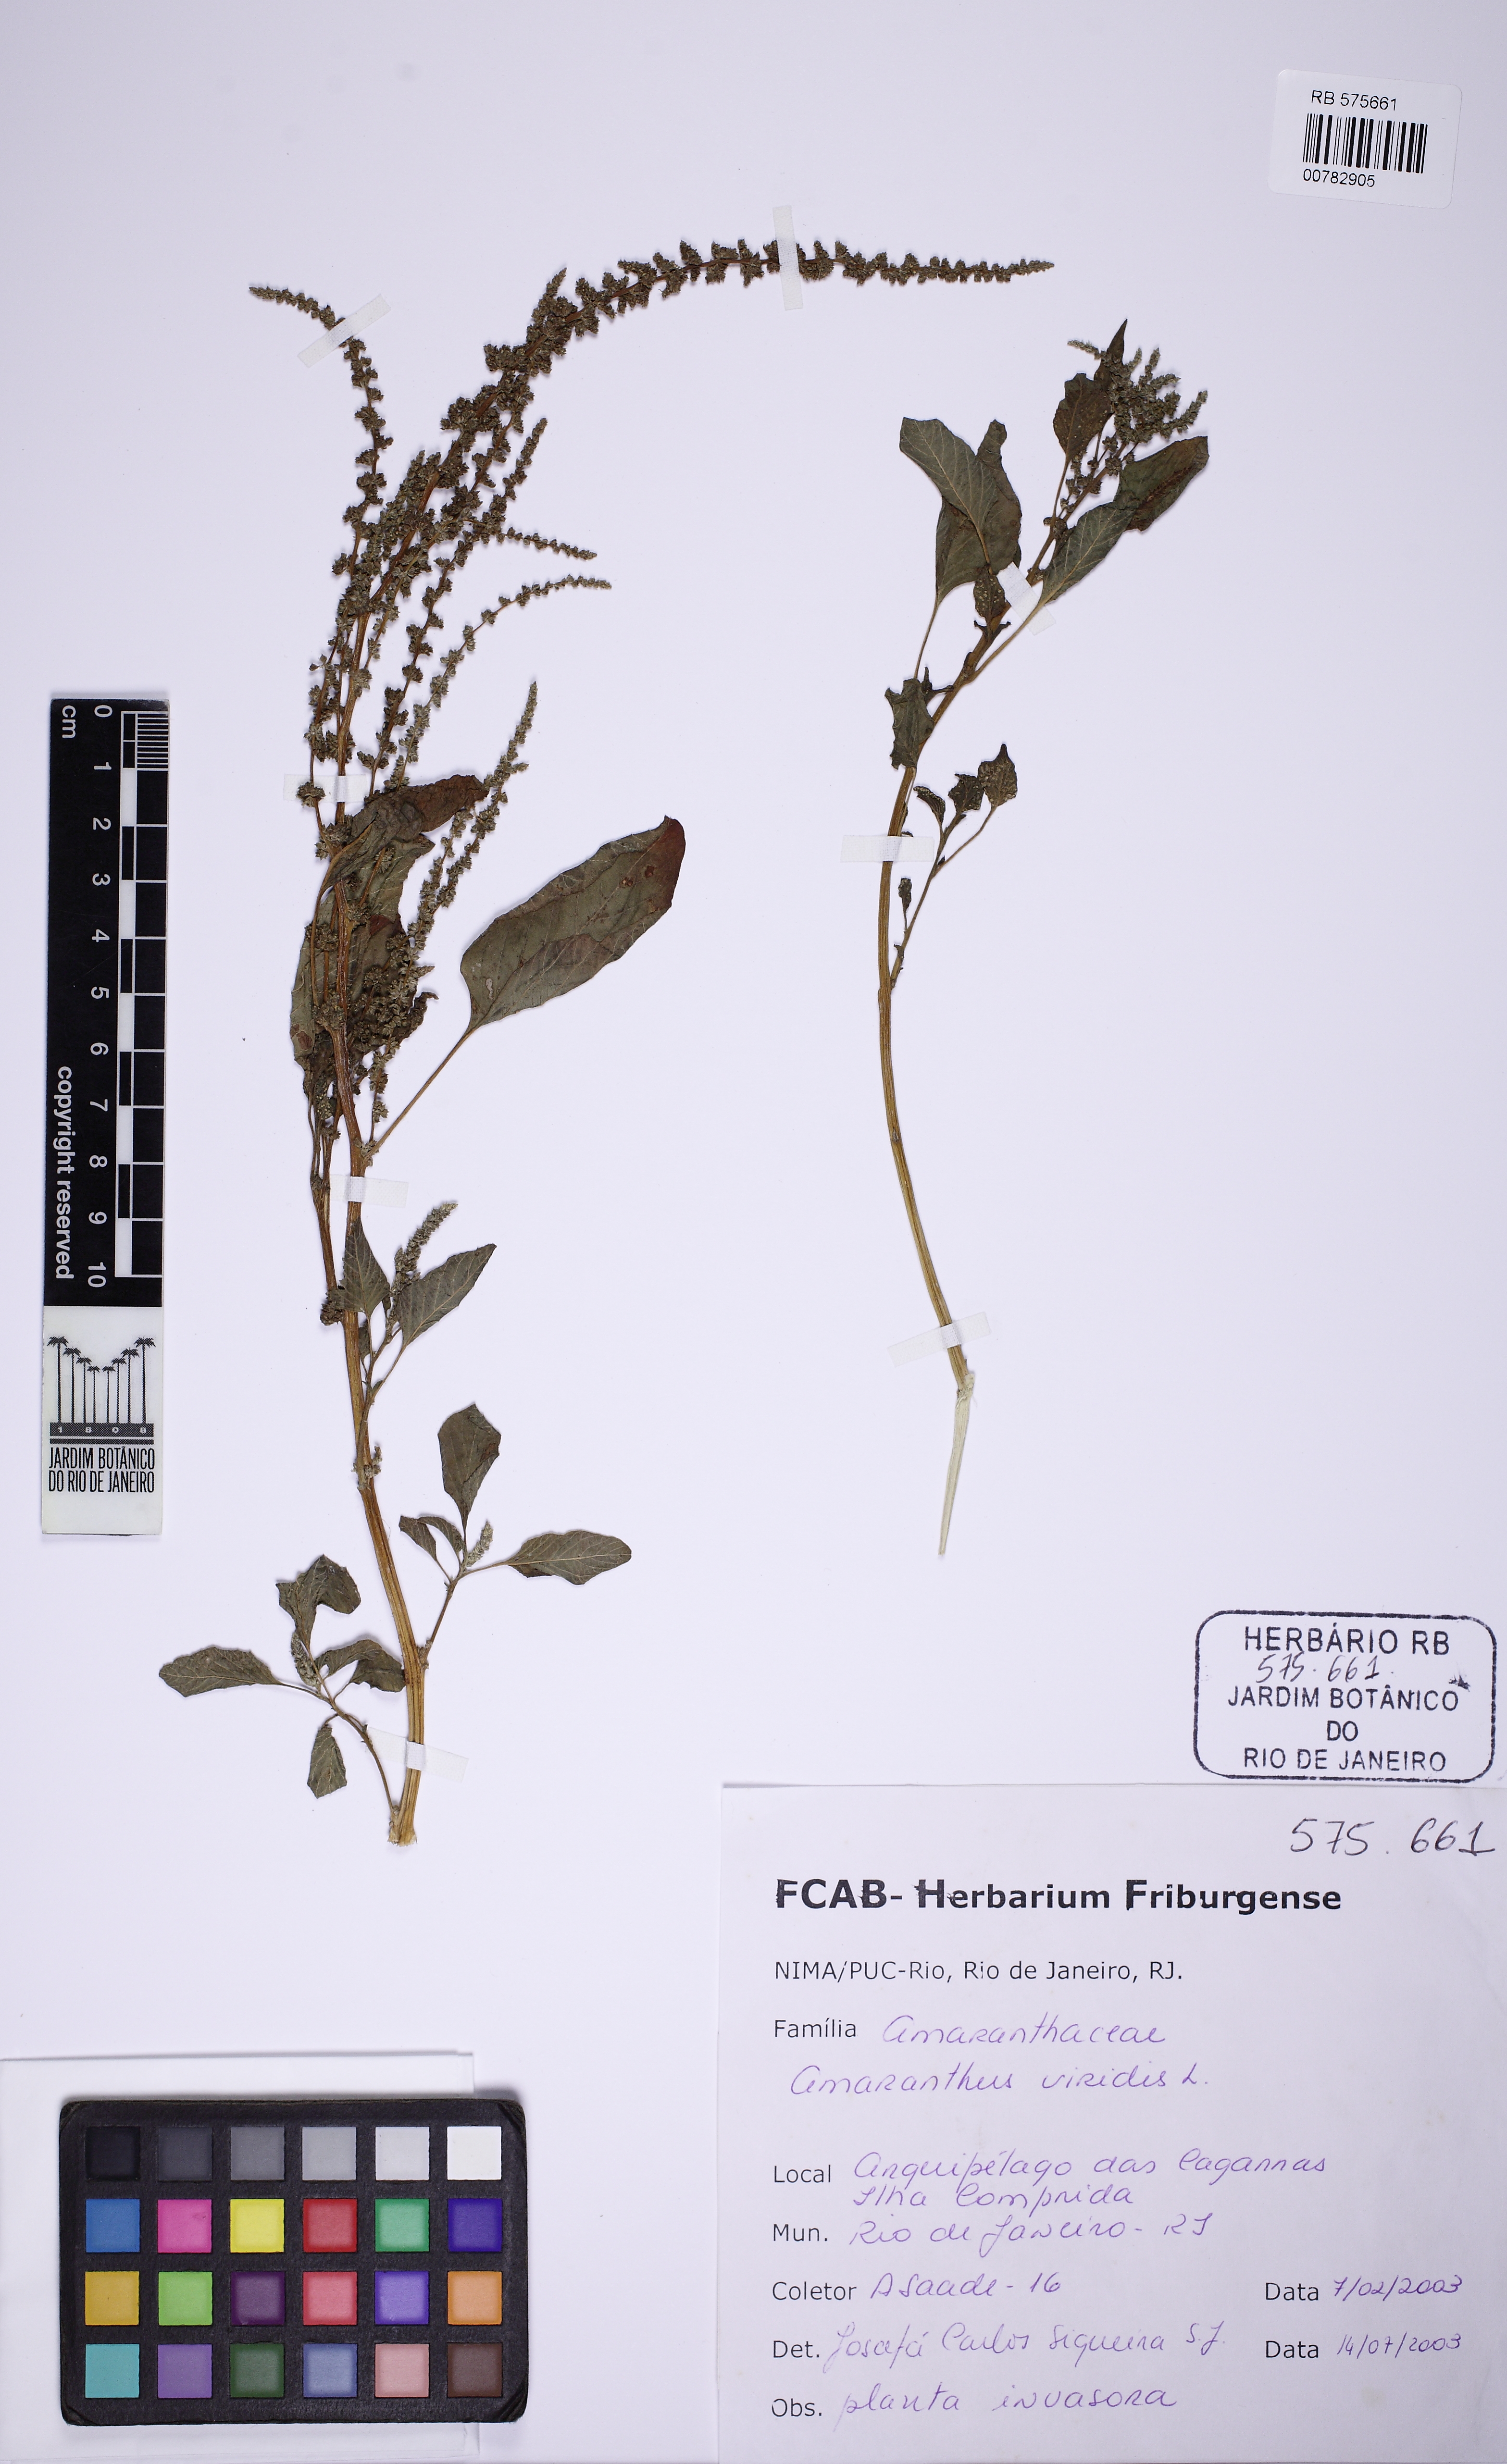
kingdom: Plantae
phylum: Tracheophyta
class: Magnoliopsida
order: Caryophyllales
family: Amaranthaceae
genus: Amaranthus
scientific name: Amaranthus viridis
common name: Slender amaranth
